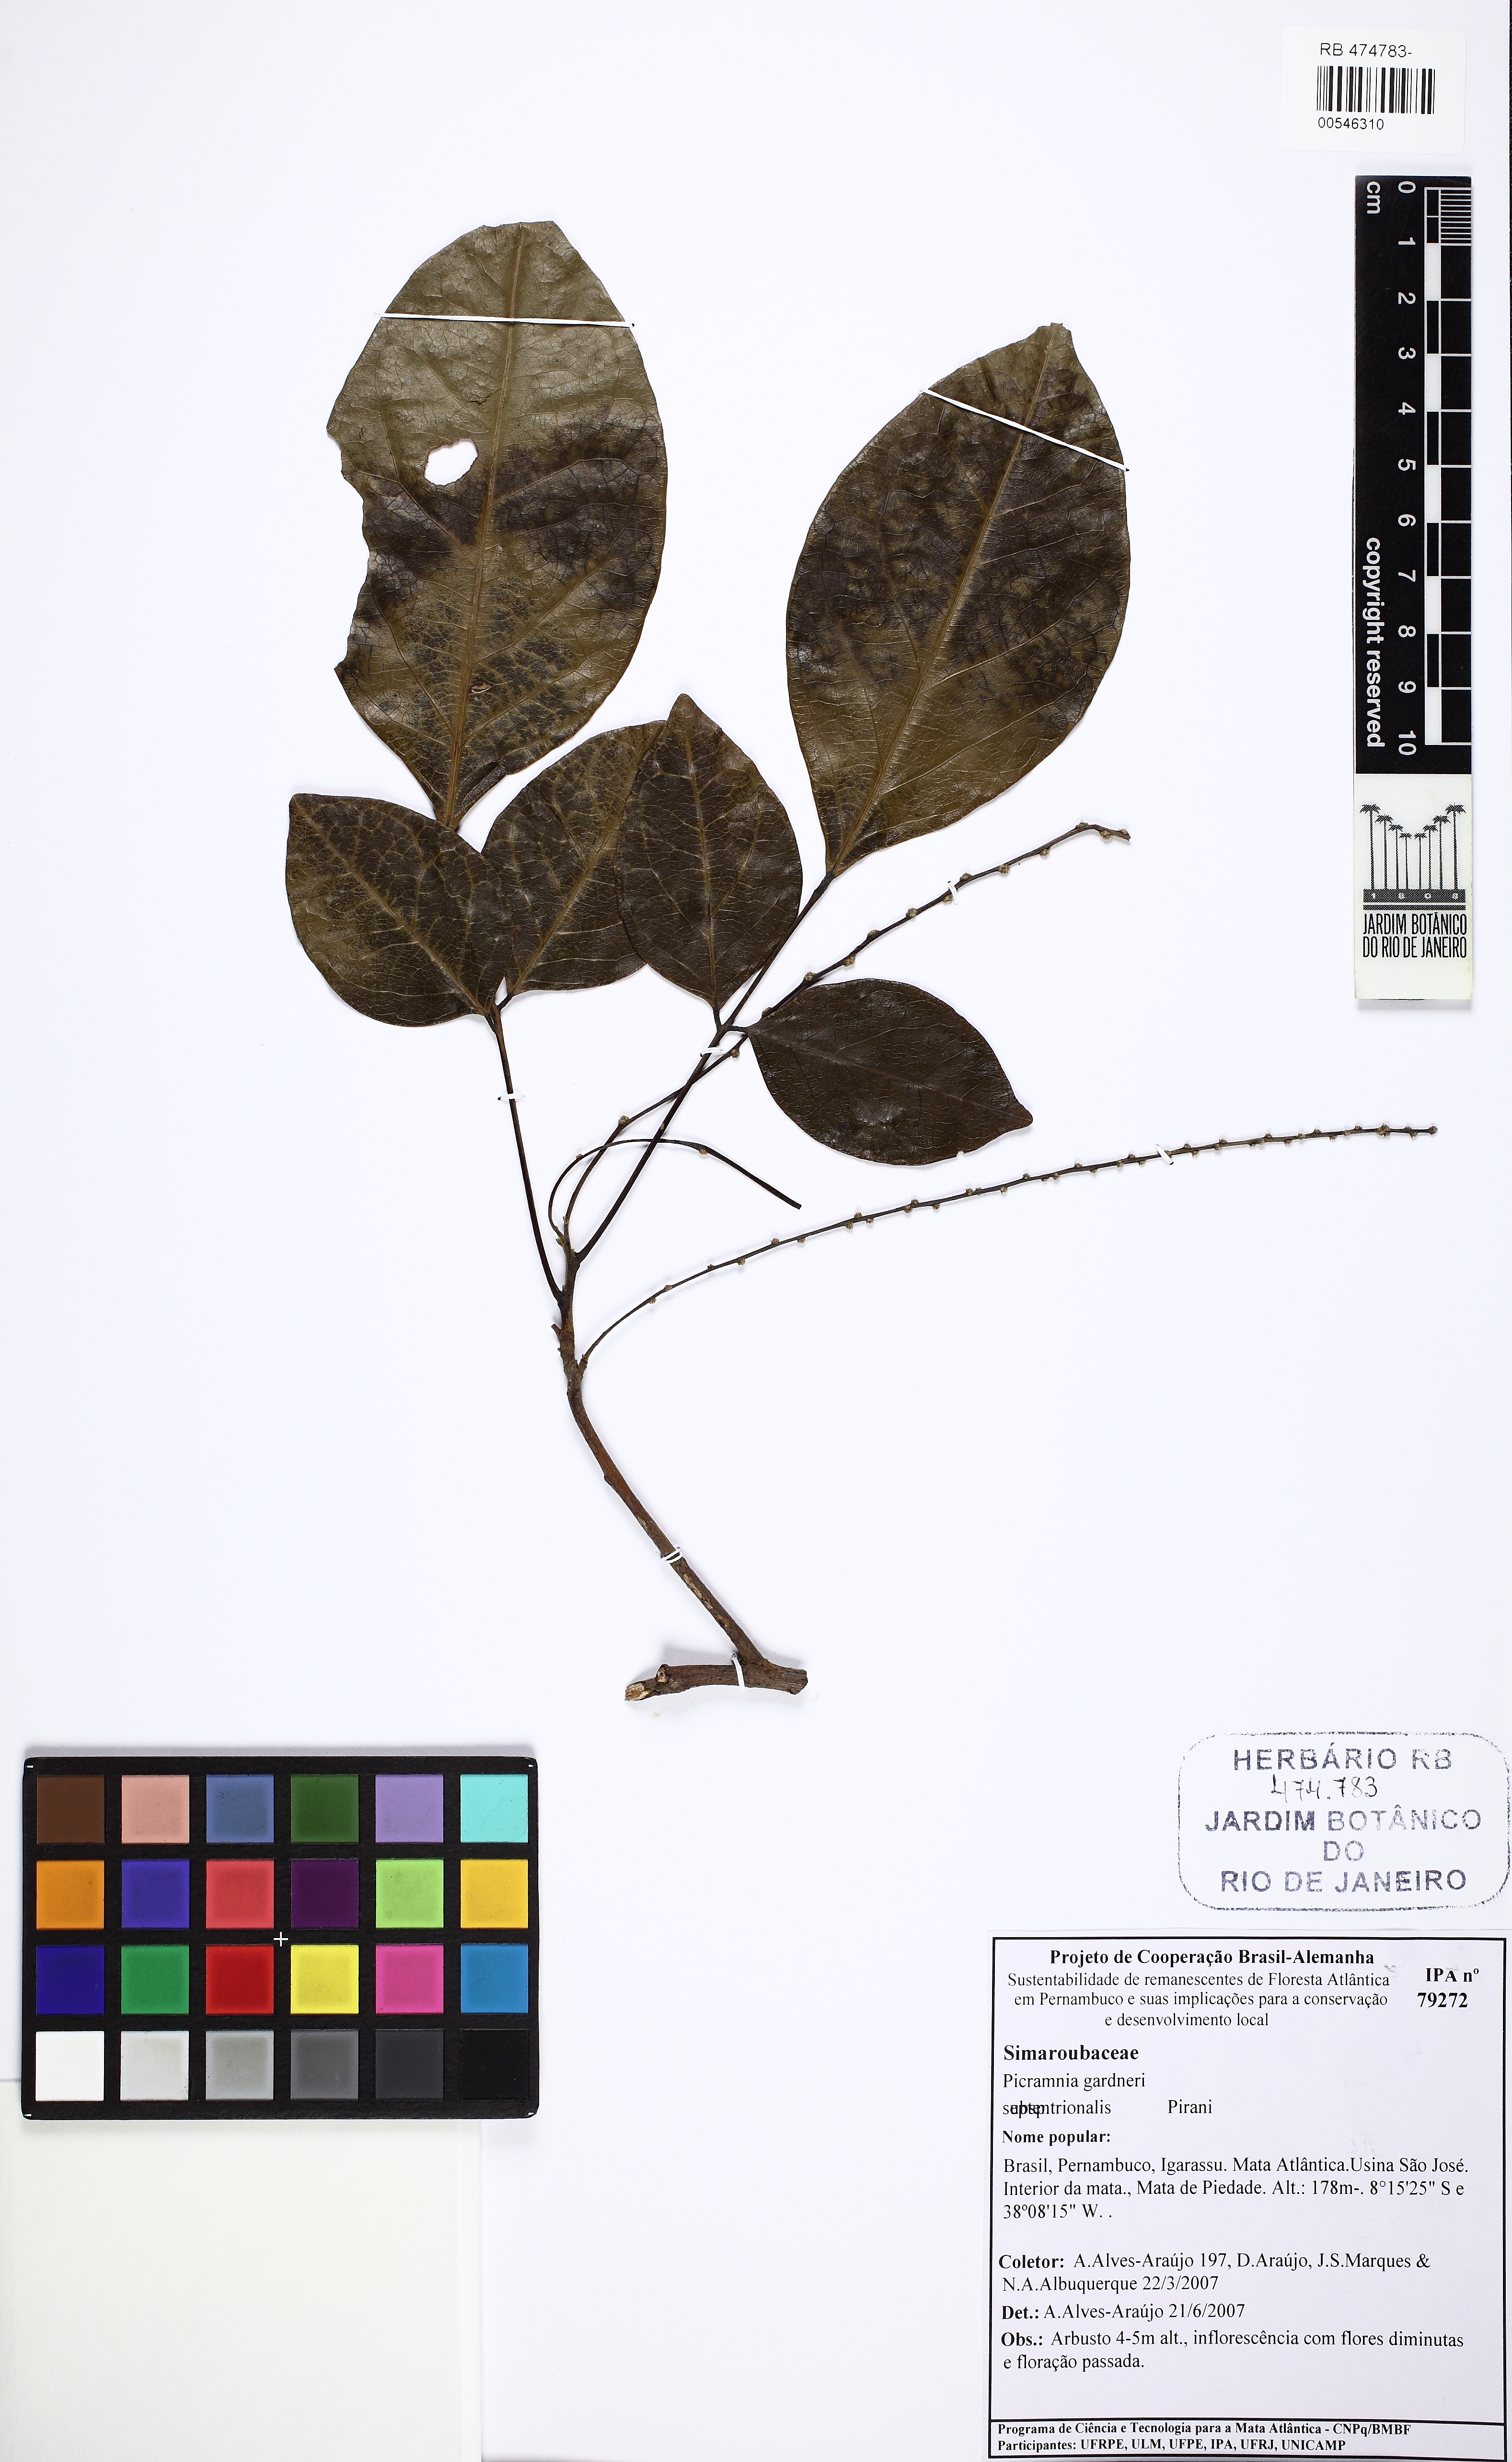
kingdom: Plantae
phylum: Tracheophyta
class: Magnoliopsida
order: Picramniales
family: Picramniaceae
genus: Picramnia
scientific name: Picramnia gardneri
